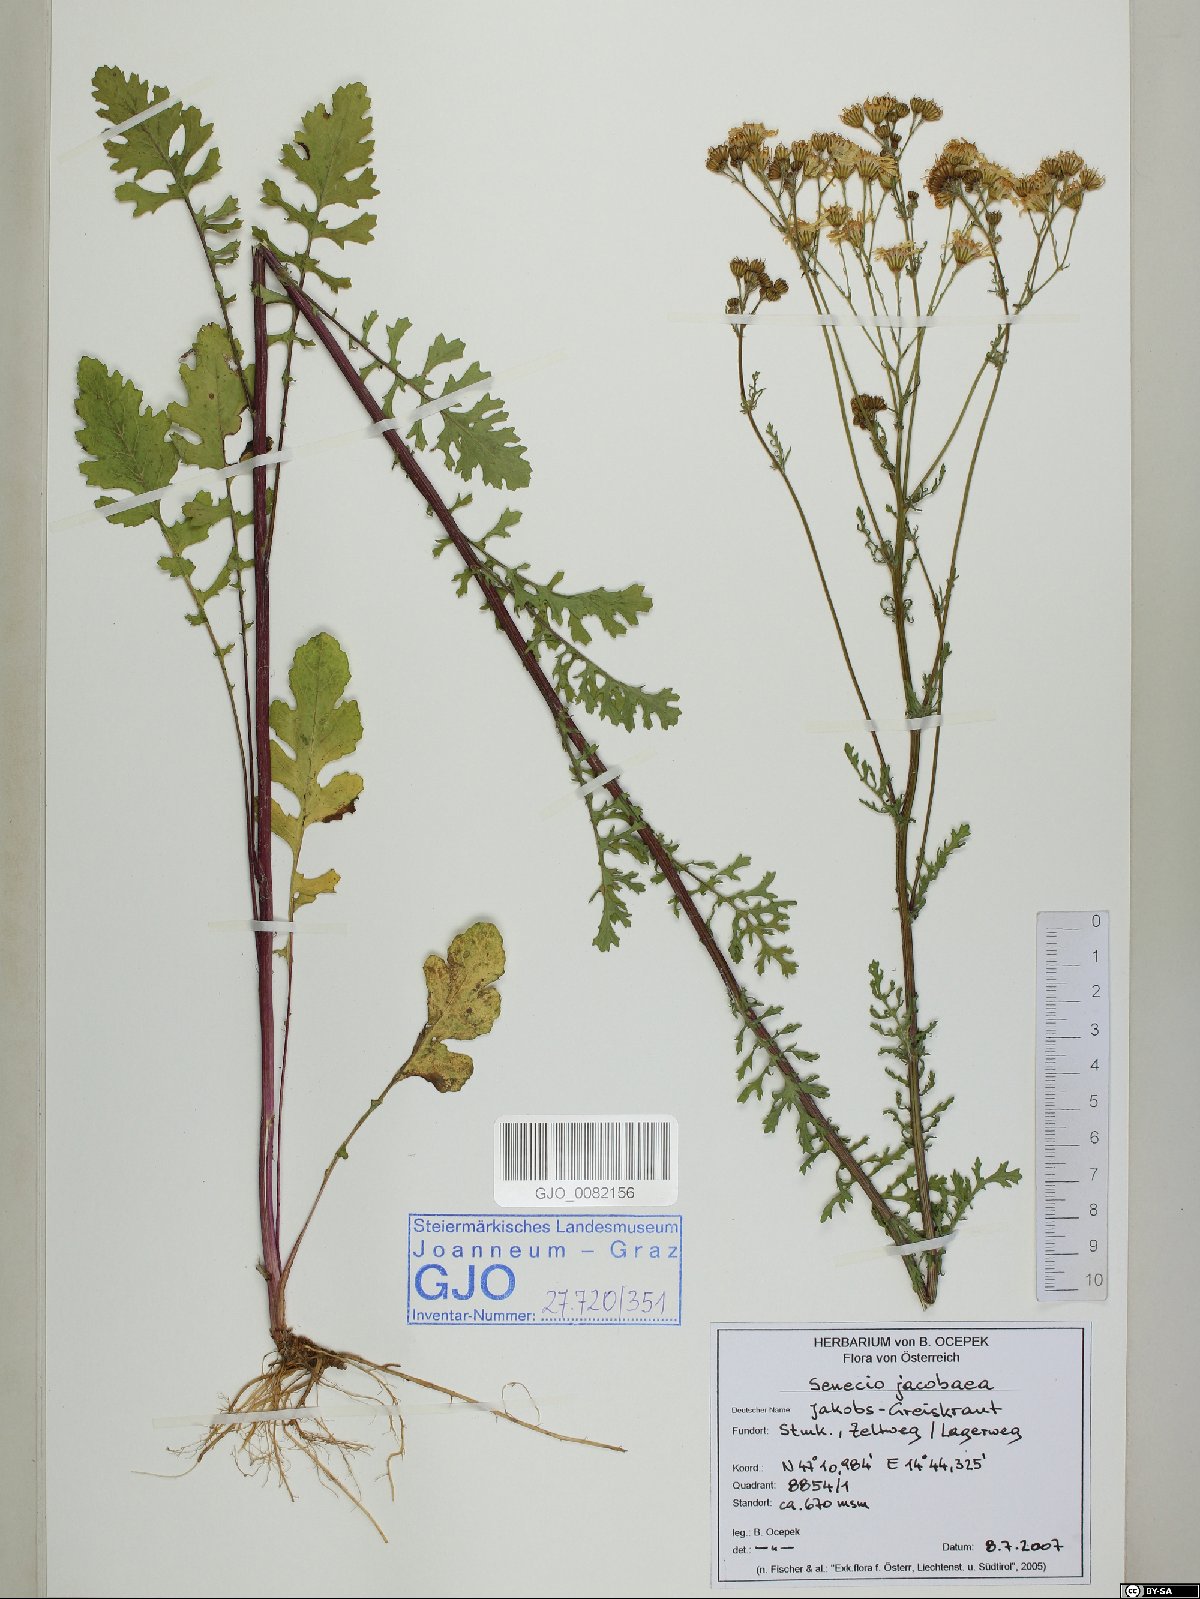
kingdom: Plantae
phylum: Tracheophyta
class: Magnoliopsida
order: Asterales
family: Asteraceae
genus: Jacobaea
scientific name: Jacobaea vulgaris
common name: Stinking willie
